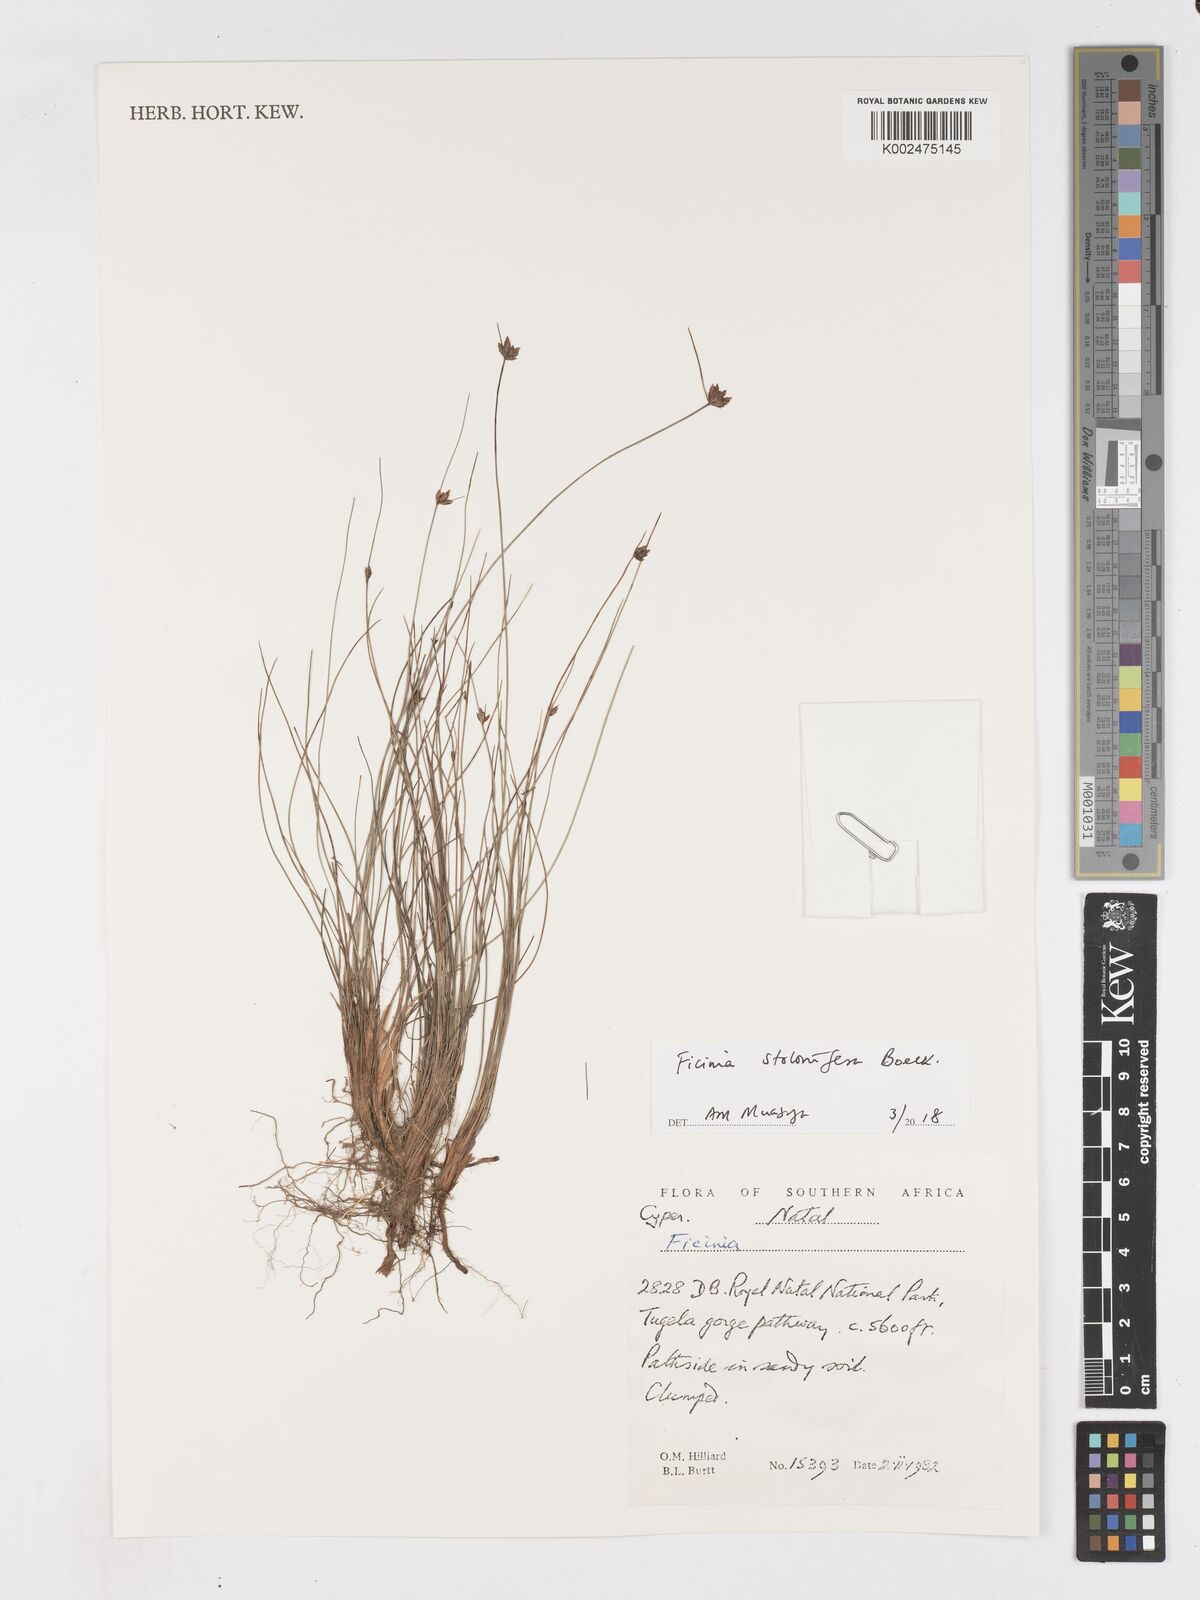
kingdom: Plantae
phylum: Tracheophyta
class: Liliopsida
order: Poales
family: Cyperaceae
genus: Ficinia
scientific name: Ficinia stolonifera
